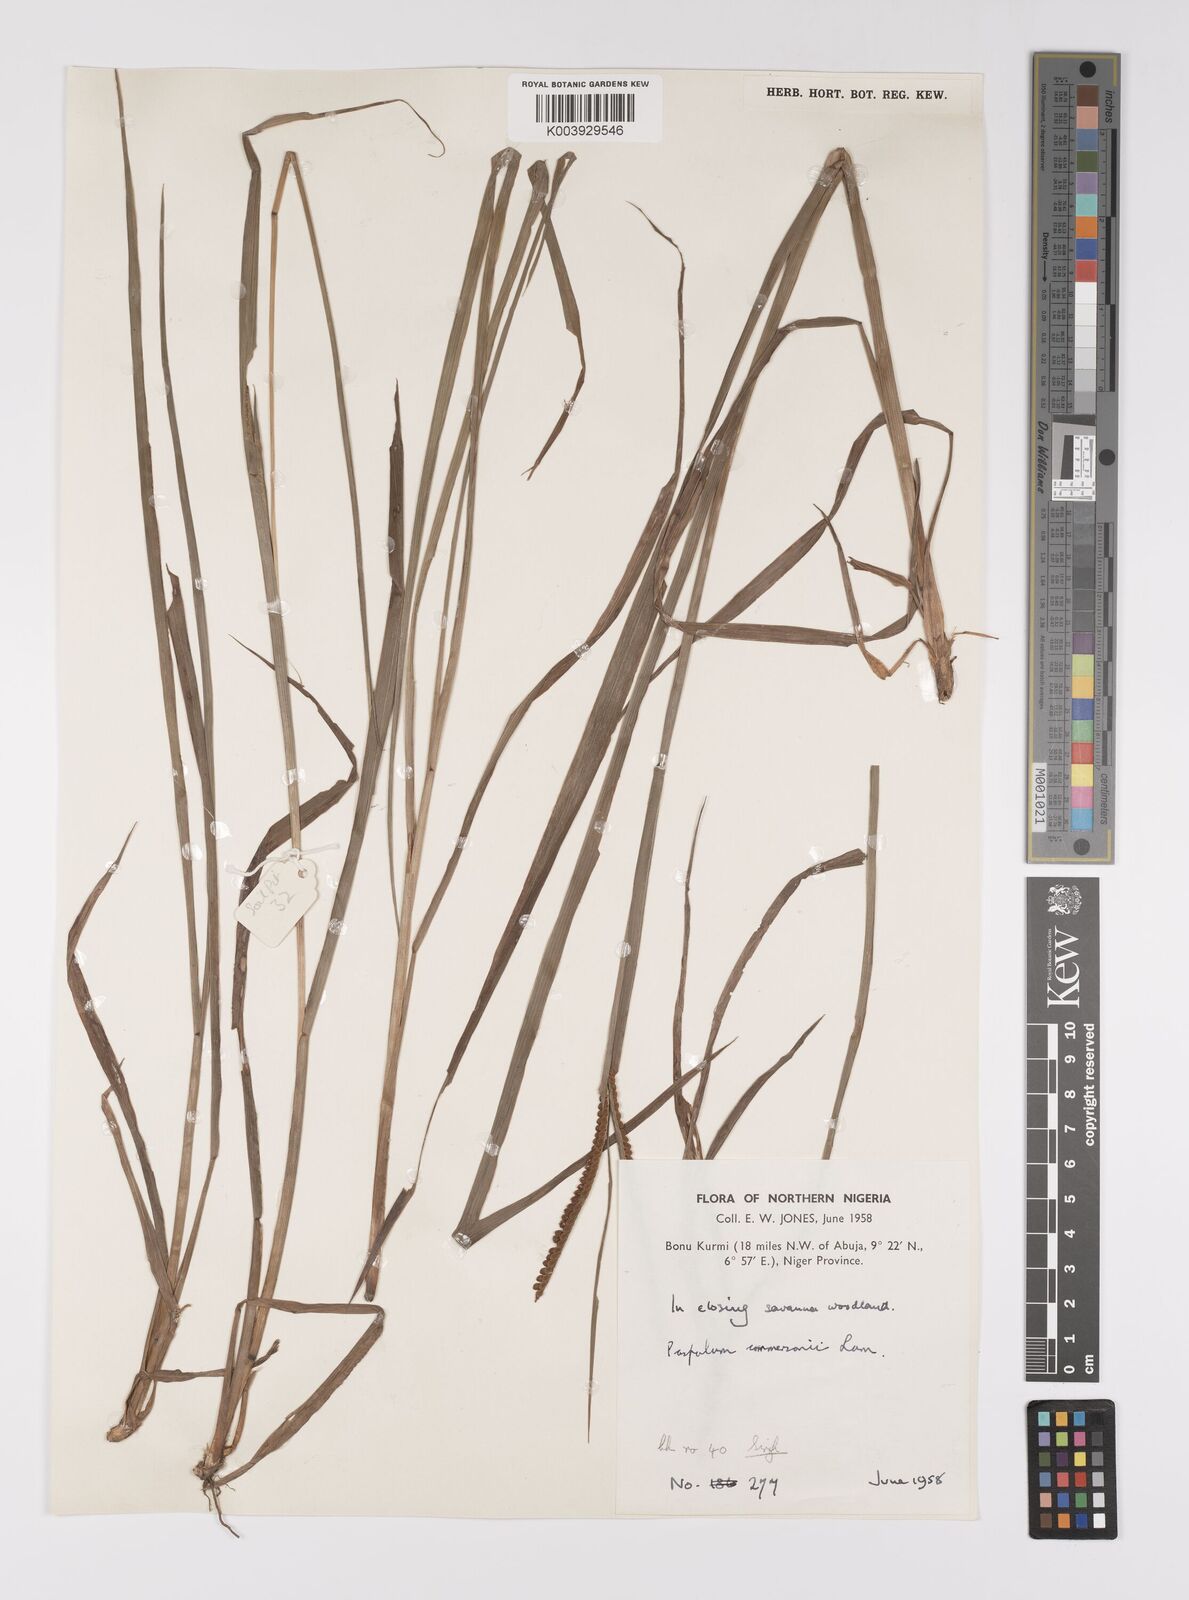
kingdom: Plantae
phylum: Tracheophyta
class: Liliopsida
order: Poales
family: Poaceae
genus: Paspalum
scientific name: Paspalum scrobiculatum
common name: Kodo millet
